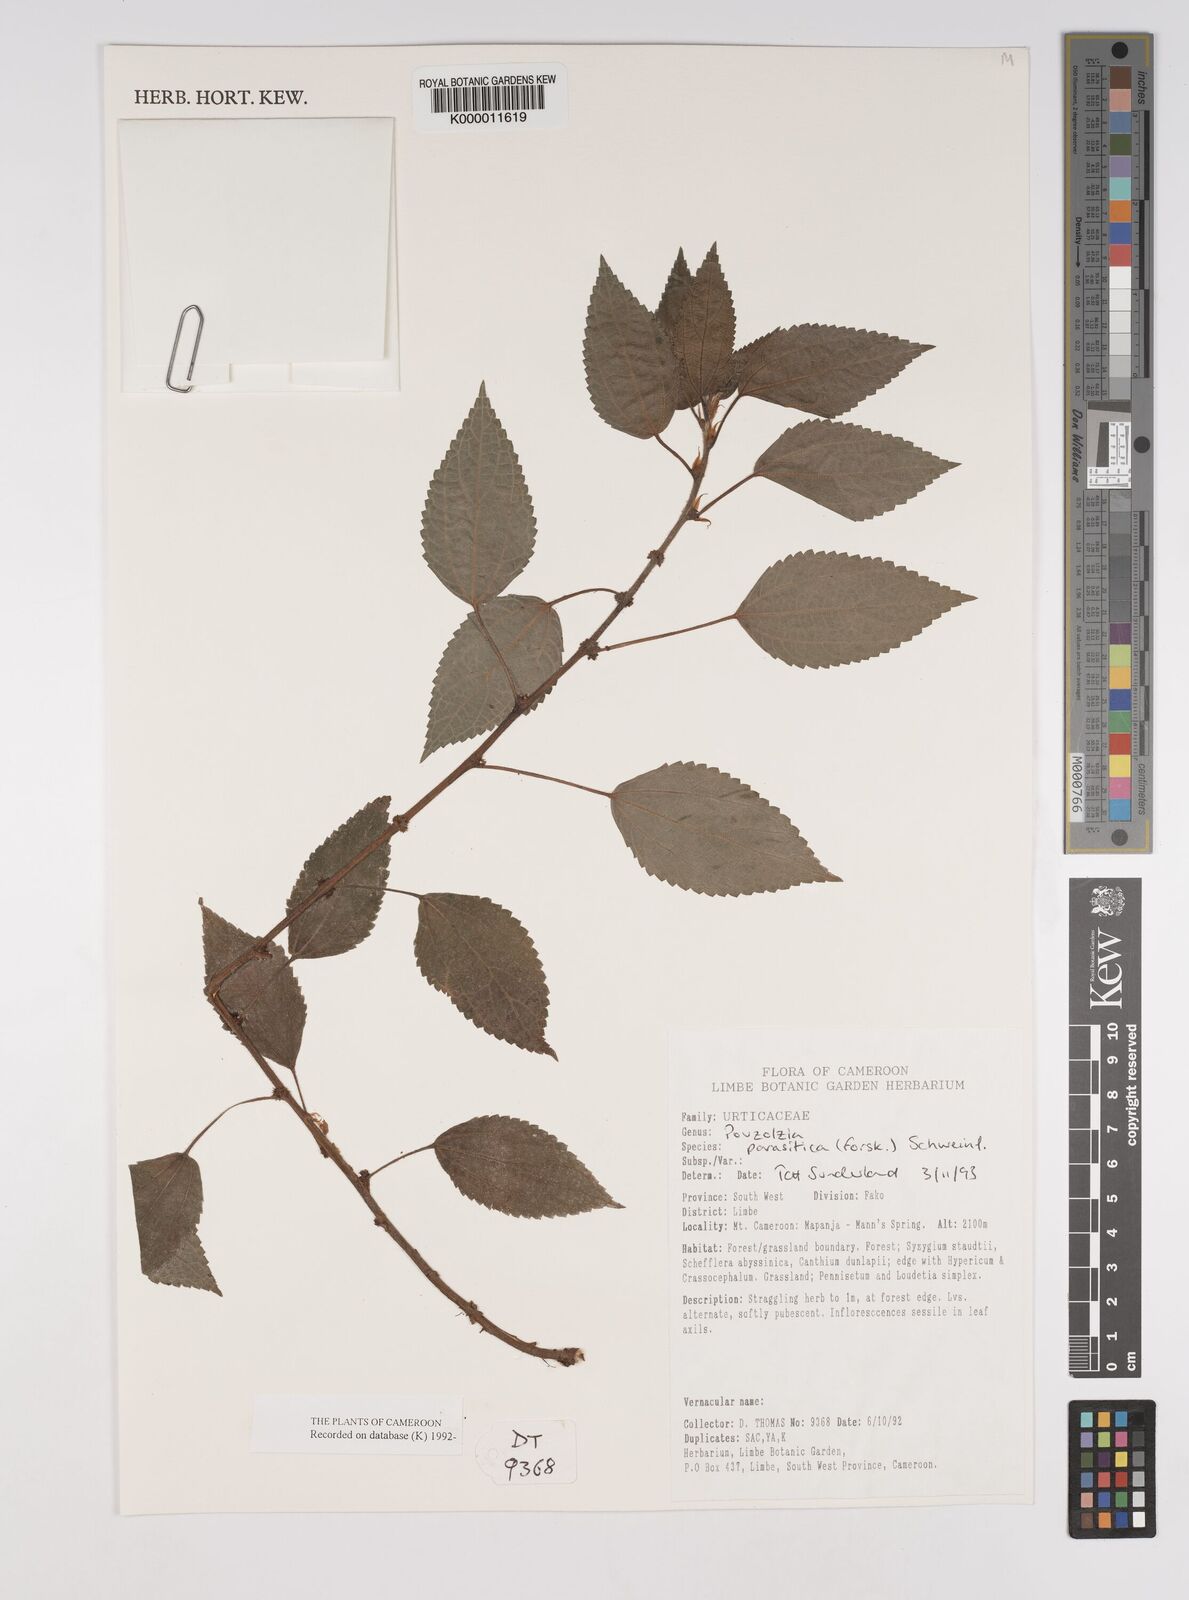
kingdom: Plantae
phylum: Tracheophyta
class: Magnoliopsida
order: Rosales
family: Urticaceae
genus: Pouzolzia
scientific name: Pouzolzia parasitica
